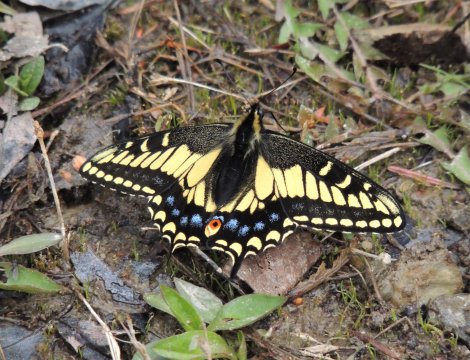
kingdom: Animalia
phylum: Arthropoda
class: Insecta
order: Lepidoptera
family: Papilionidae
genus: Papilio
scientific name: Papilio zelicaon
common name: Anise Swallowtail
